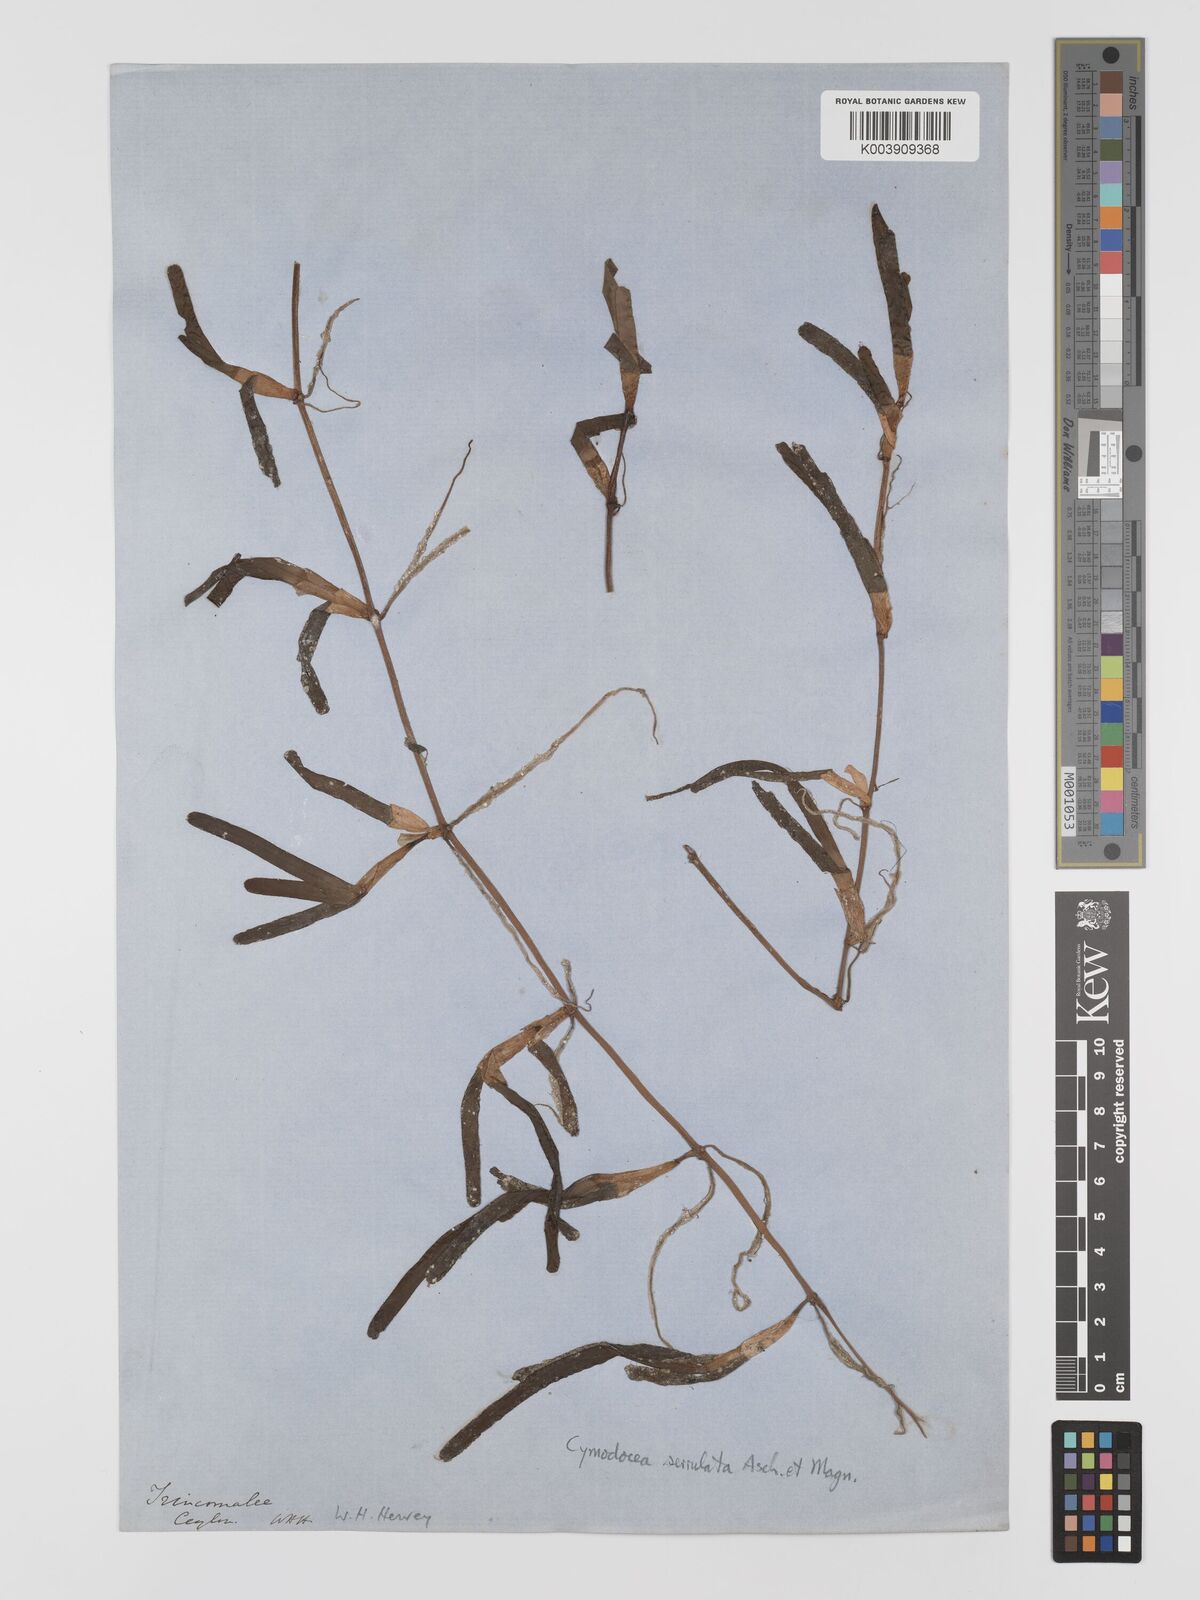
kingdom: Plantae
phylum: Tracheophyta
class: Liliopsida
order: Alismatales
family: Cymodoceaceae
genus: Oceana
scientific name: Oceana serrulata
